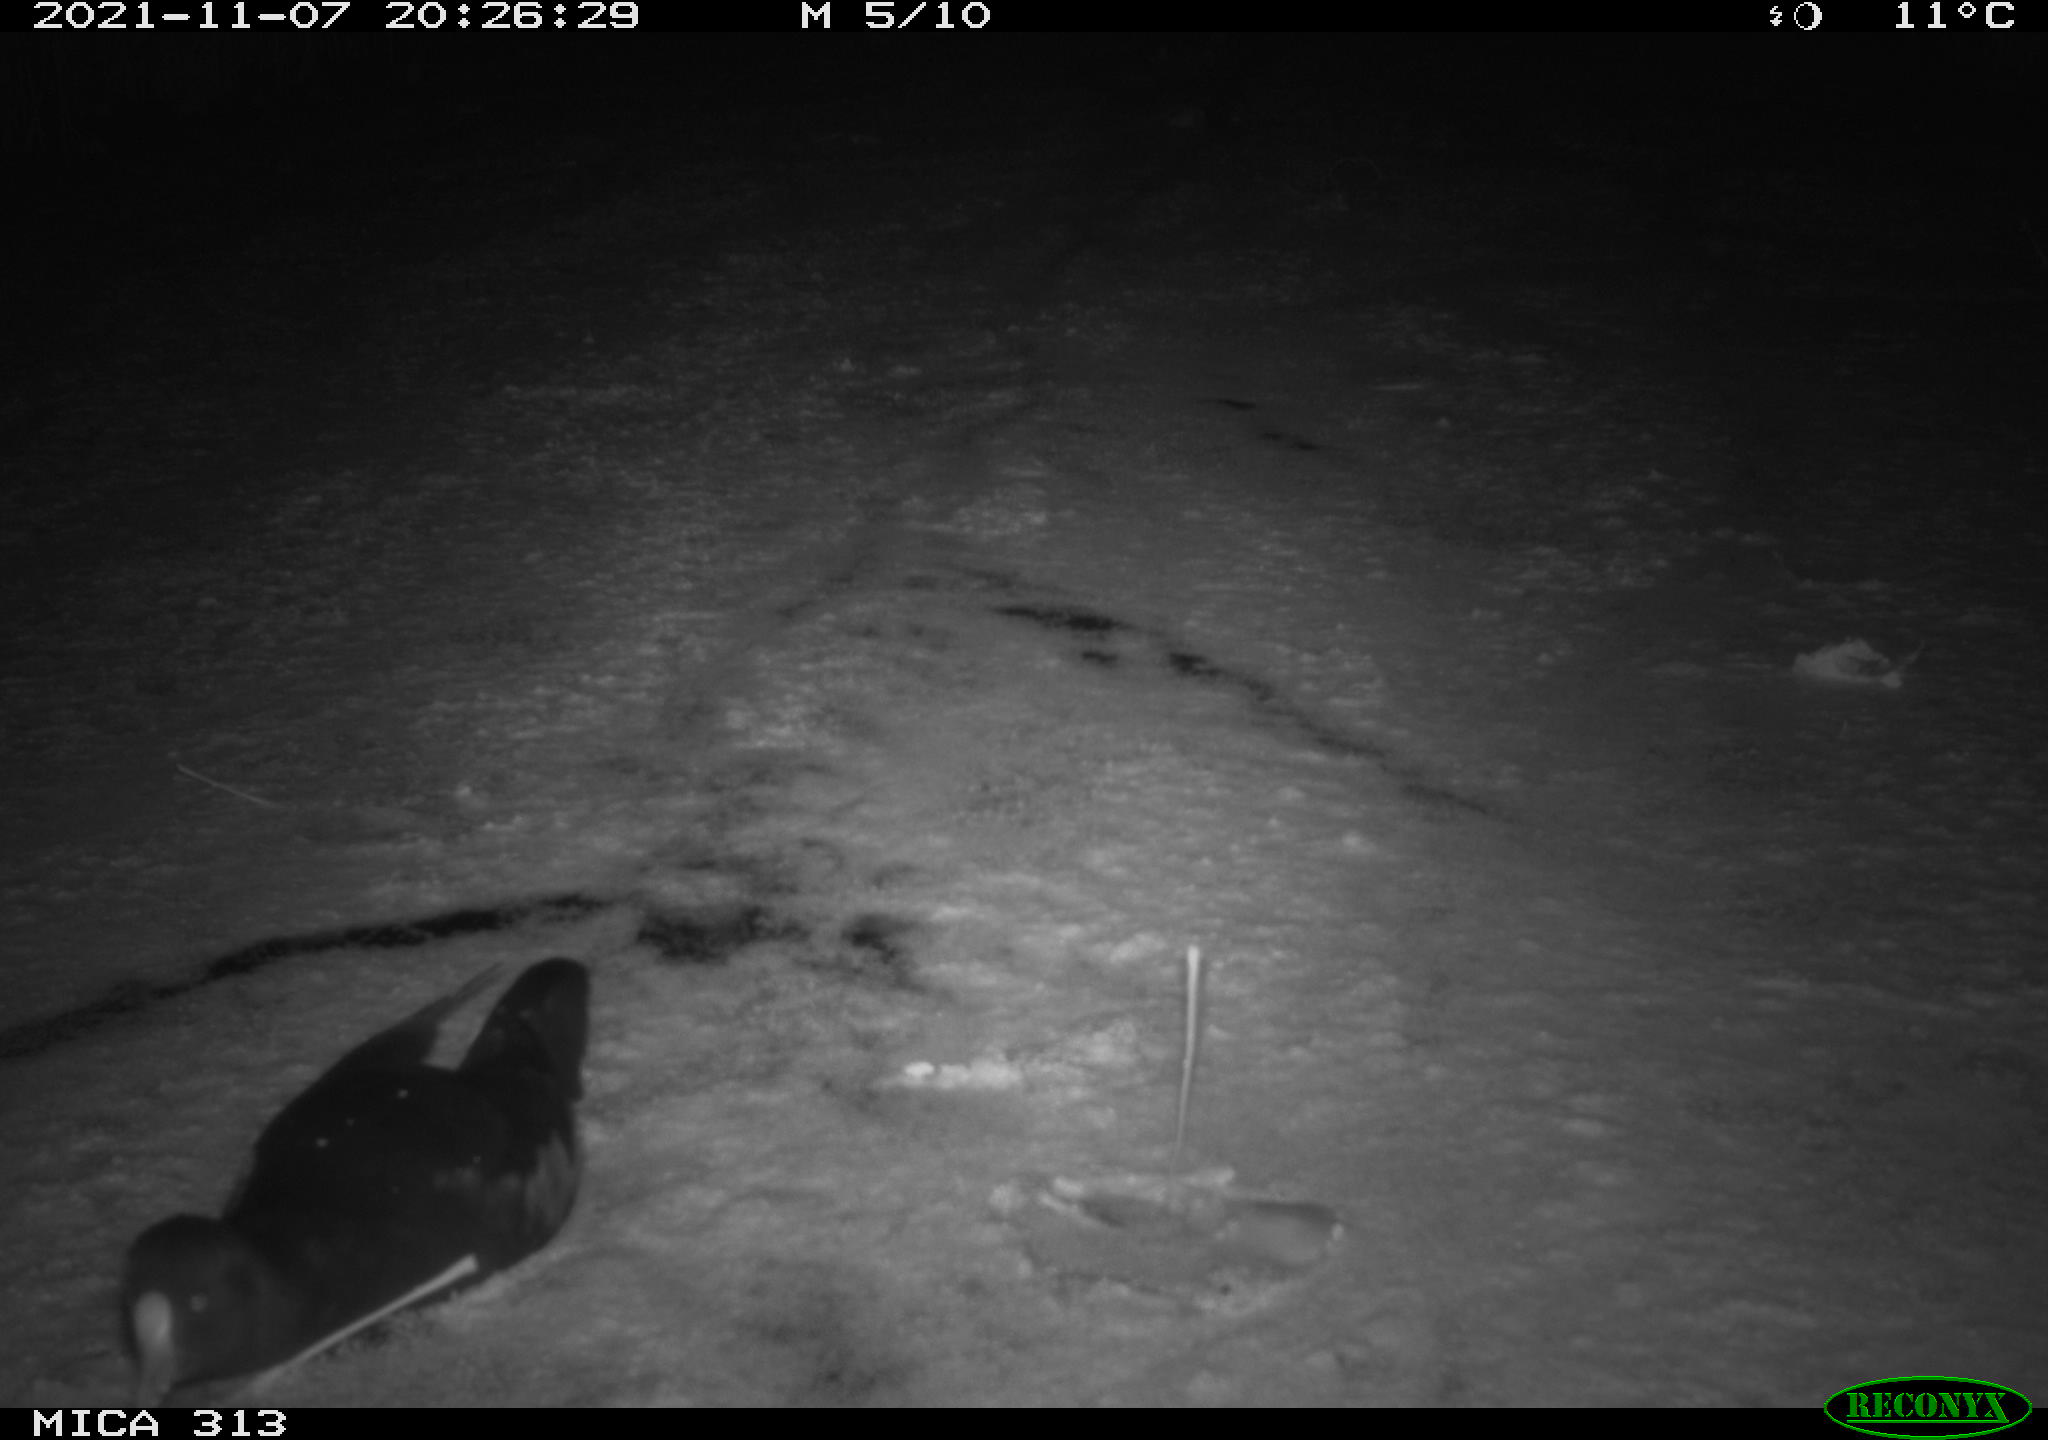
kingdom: Animalia
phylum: Chordata
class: Aves
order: Gruiformes
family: Rallidae
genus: Gallinula
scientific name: Gallinula chloropus
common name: Common moorhen
